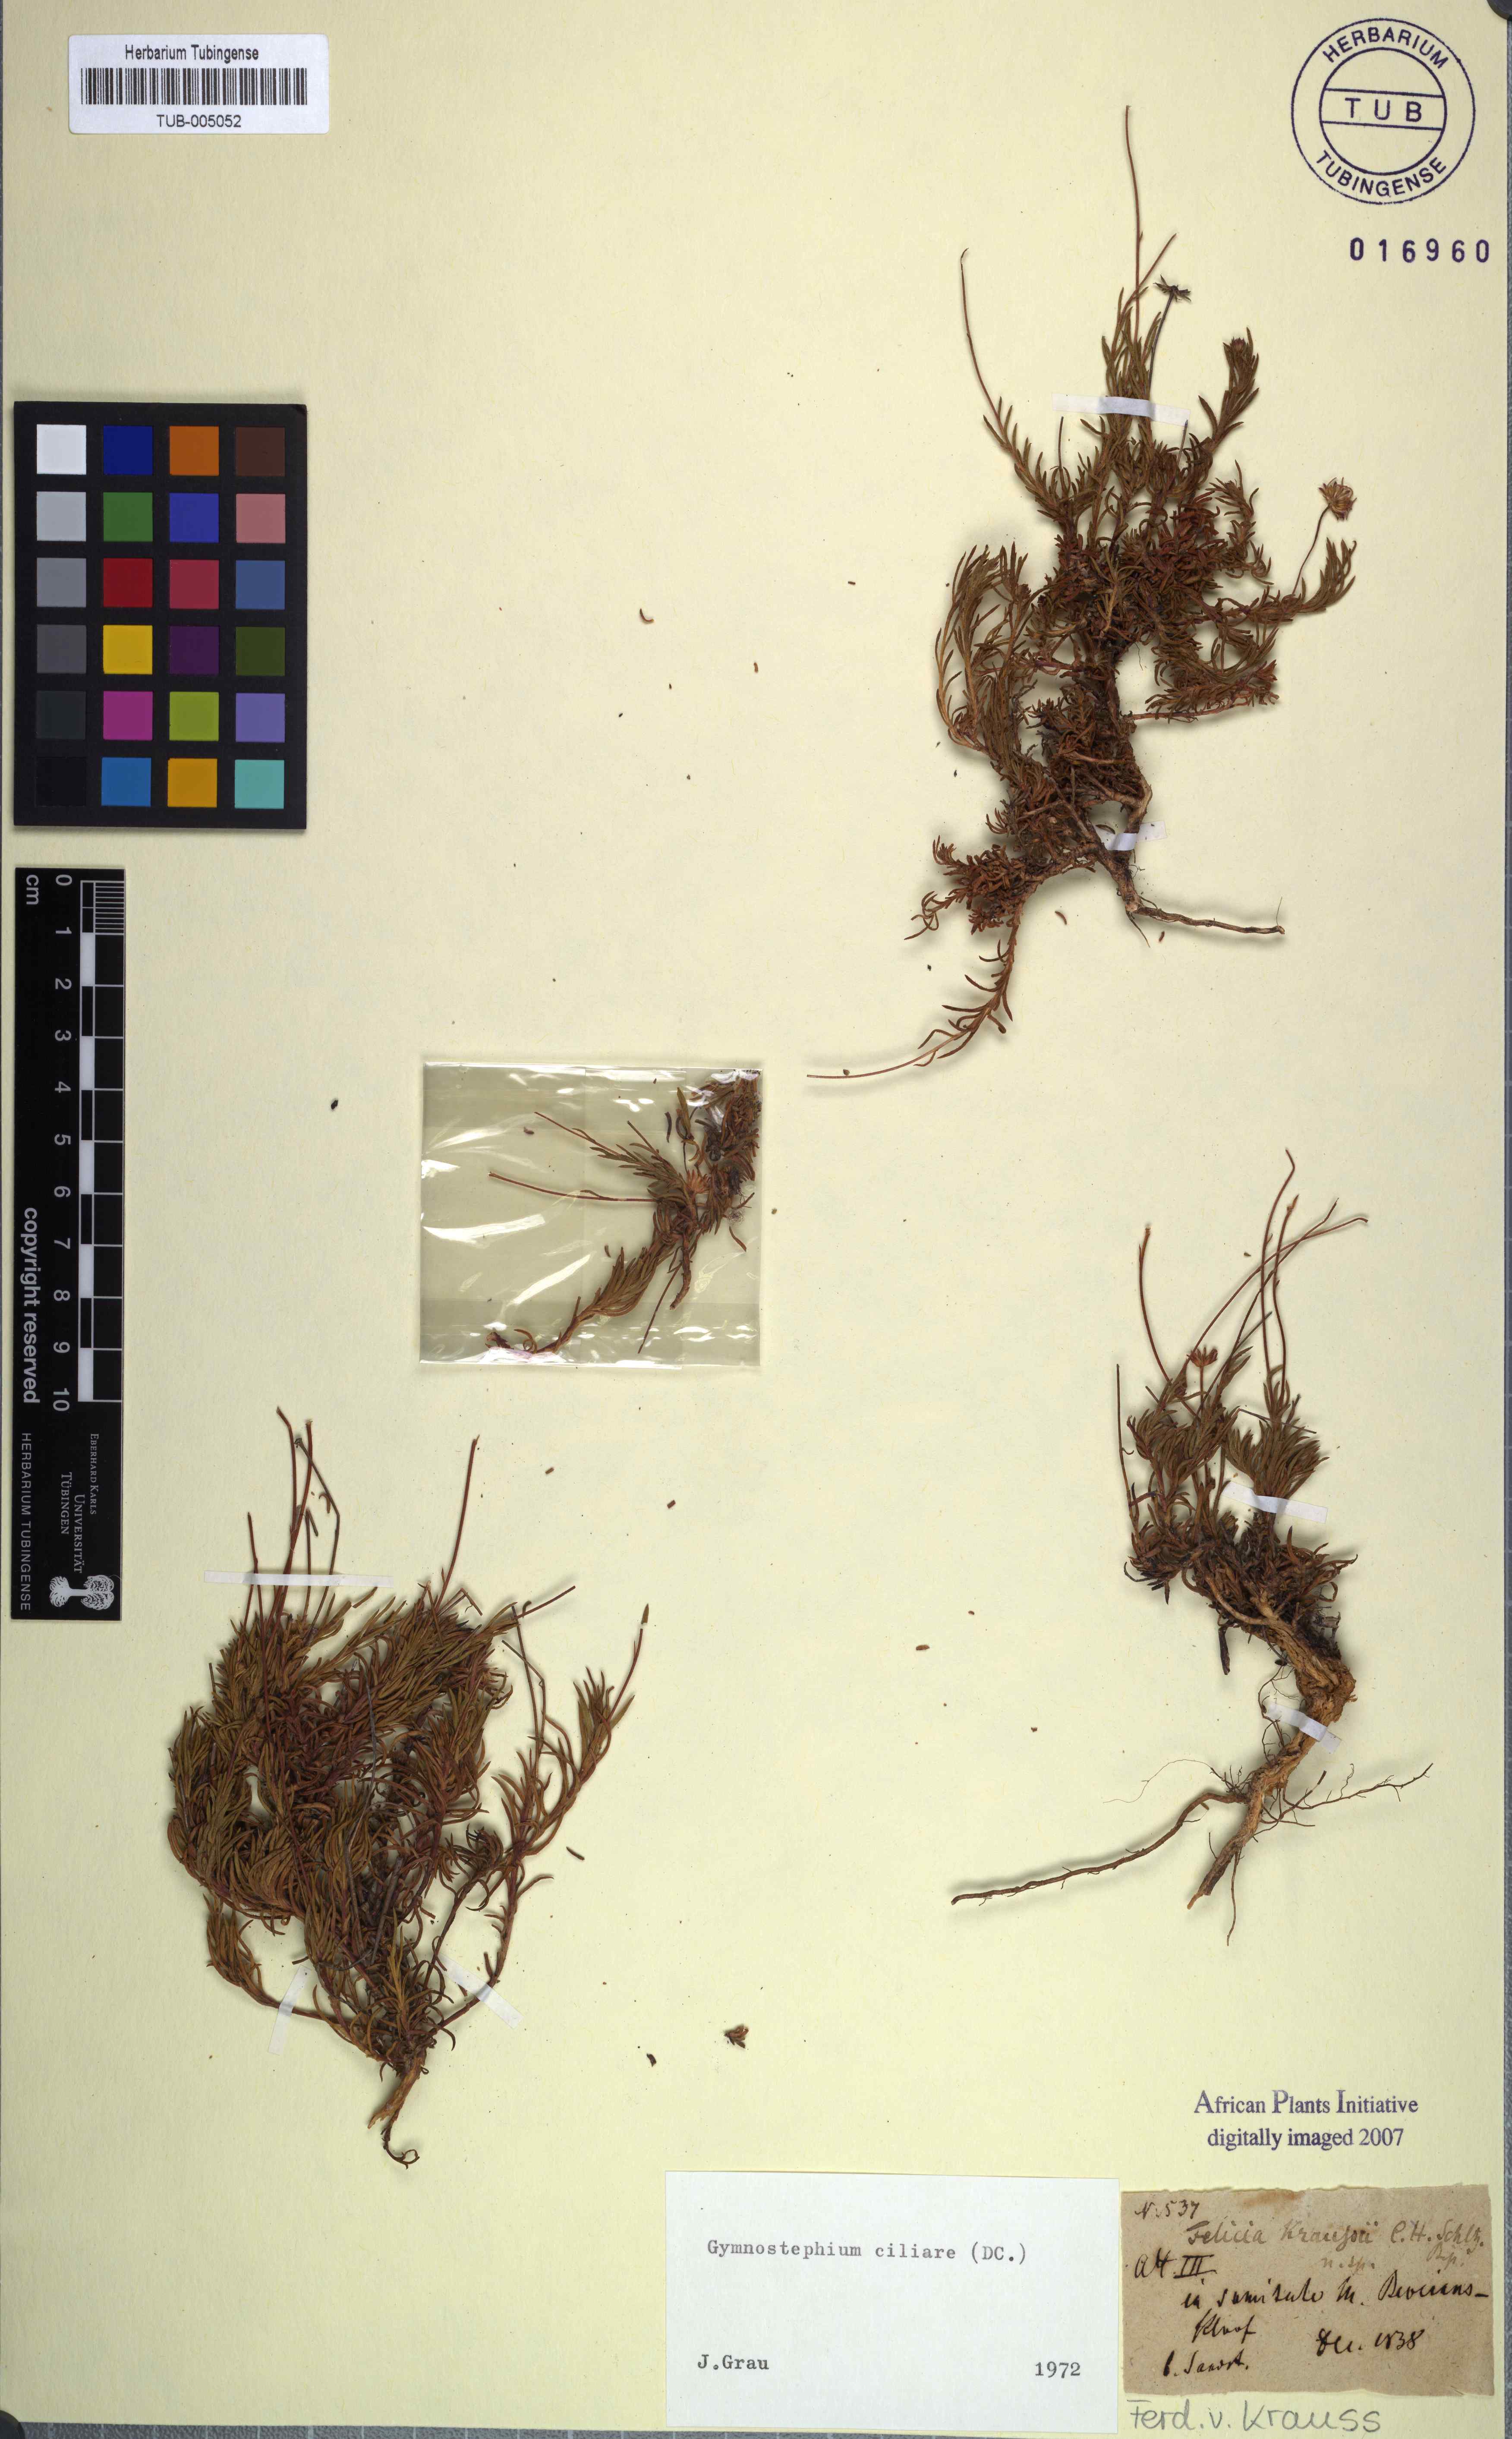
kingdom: Plantae
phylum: Tracheophyta
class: Magnoliopsida
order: Asterales
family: Asteraceae
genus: Zyrphelis
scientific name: Zyrphelis ciliaris
